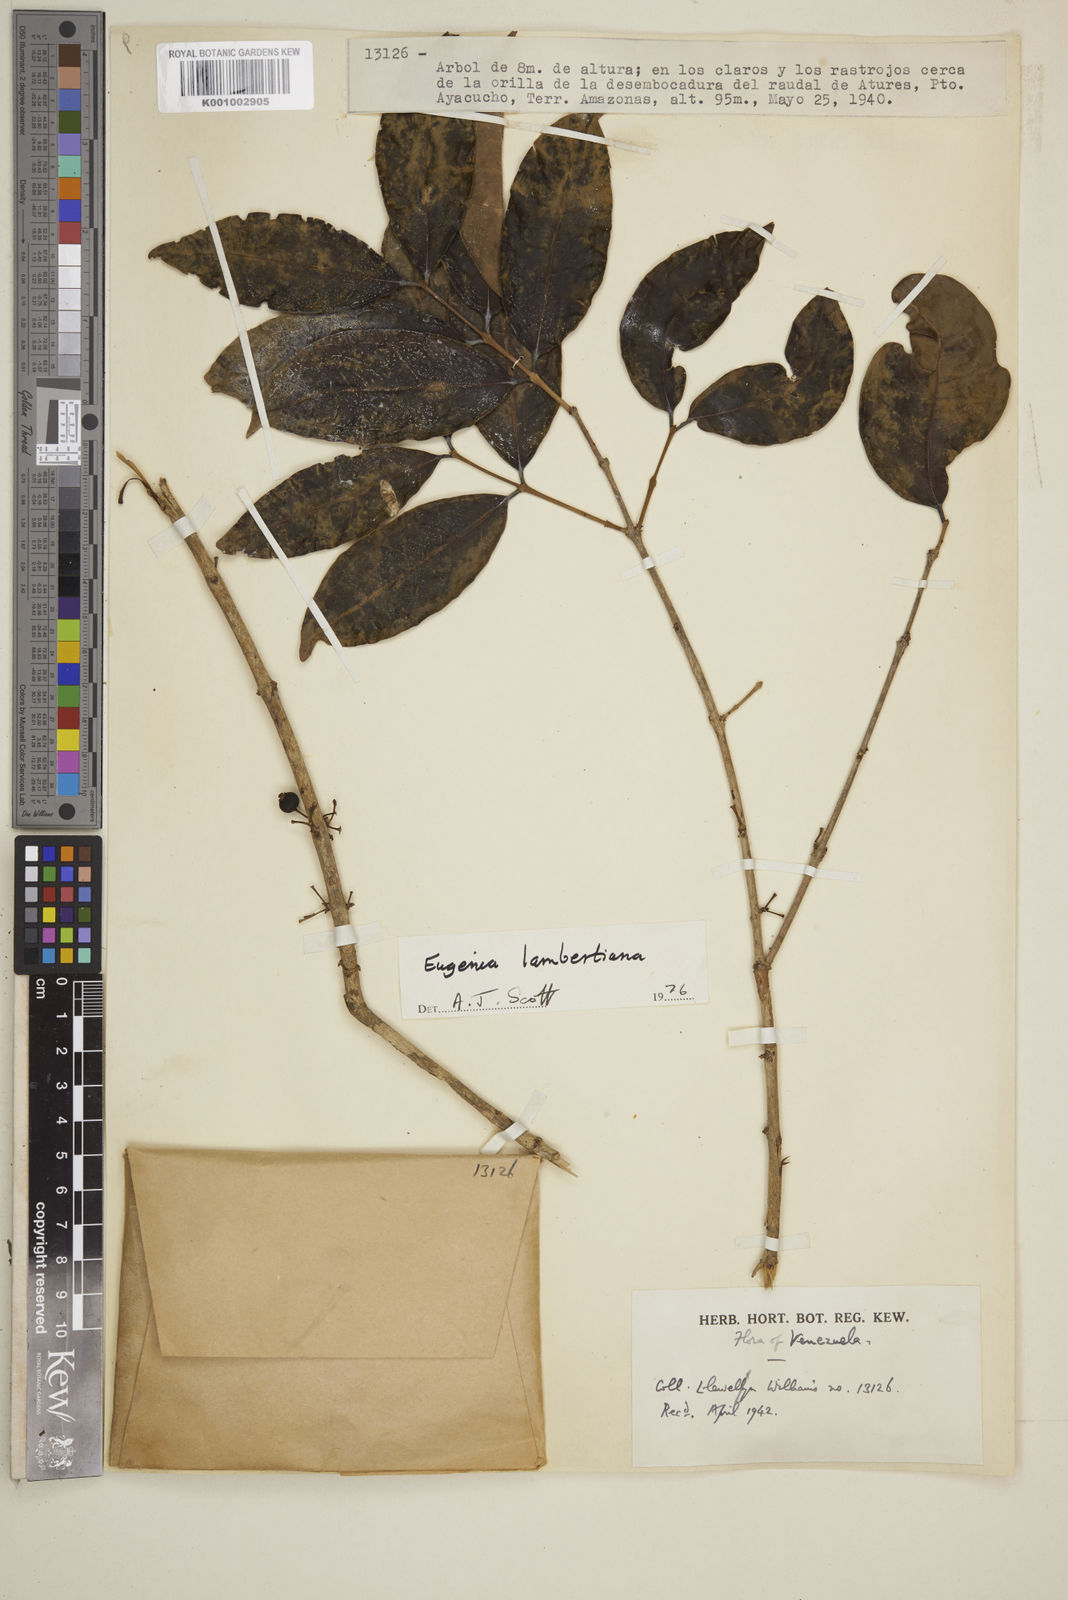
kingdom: Plantae
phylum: Tracheophyta
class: Magnoliopsida
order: Myrtales
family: Myrtaceae
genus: Eugenia
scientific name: Eugenia lambertiana
